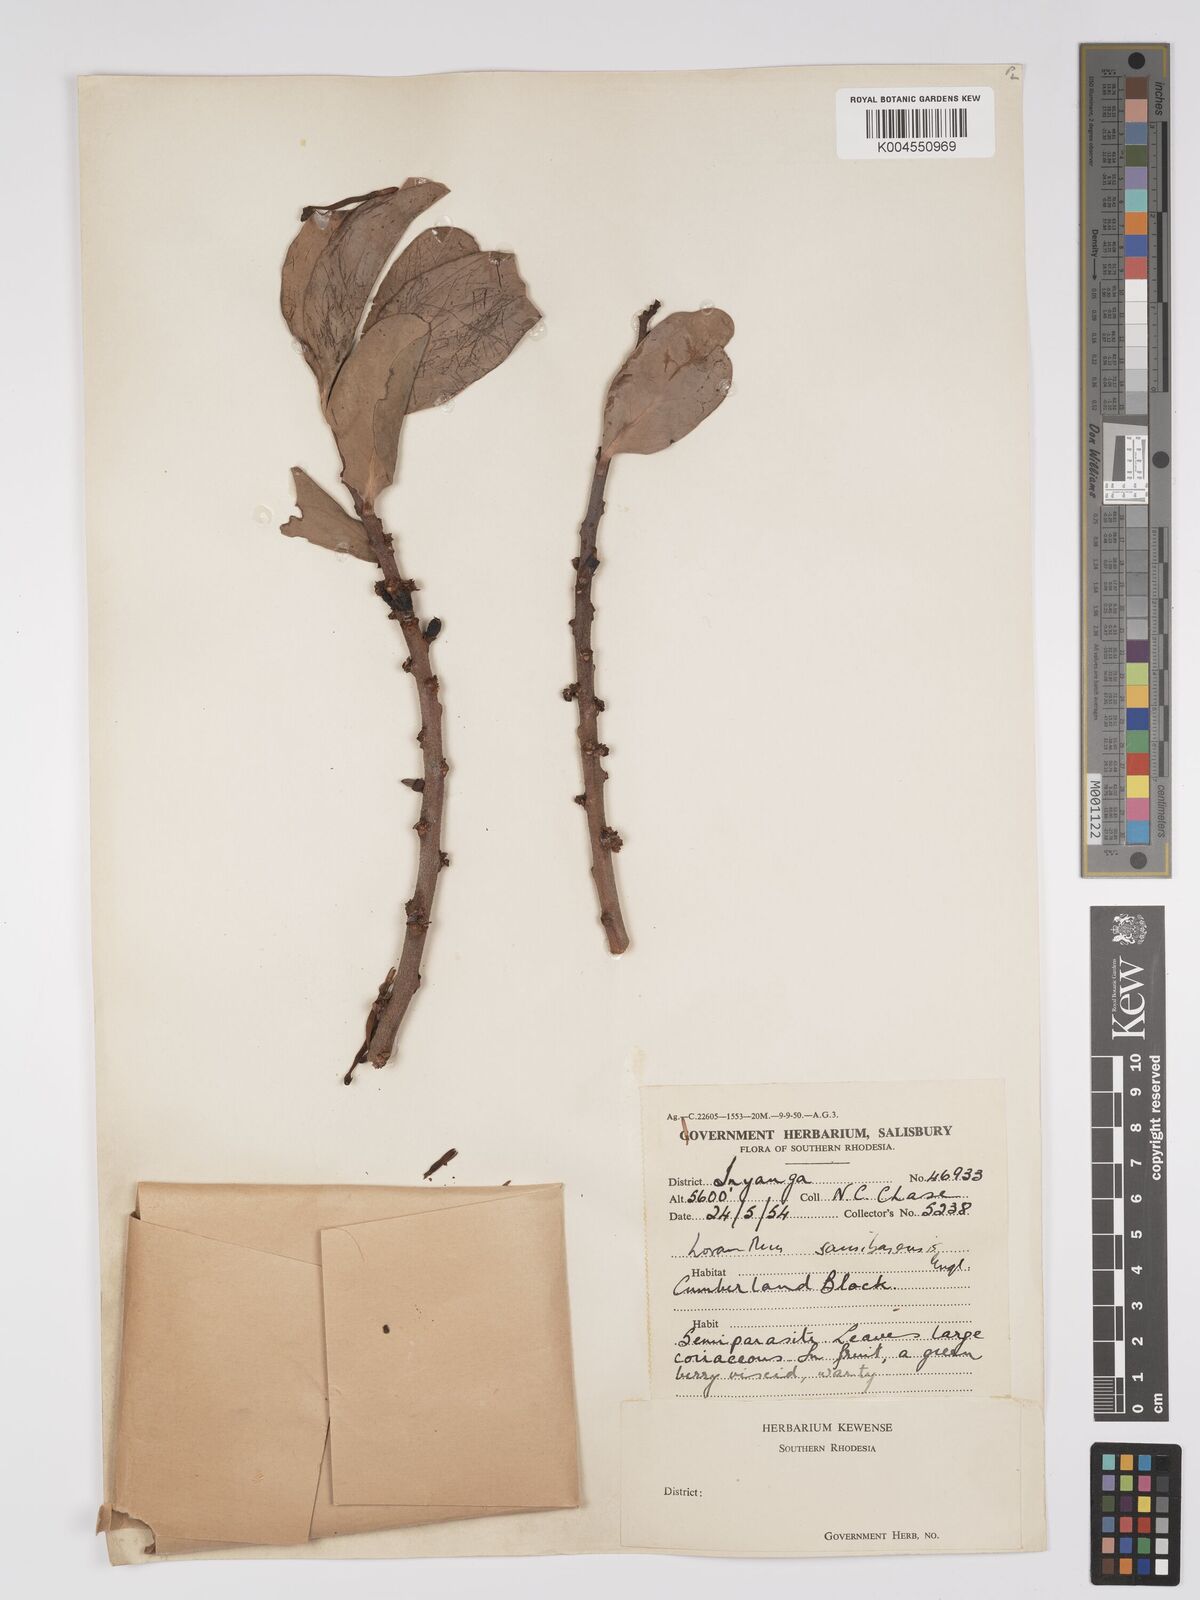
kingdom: Plantae
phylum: Tracheophyta
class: Magnoliopsida
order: Santalales
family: Loranthaceae
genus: Agelanthus
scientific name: Agelanthus fuellebornii
